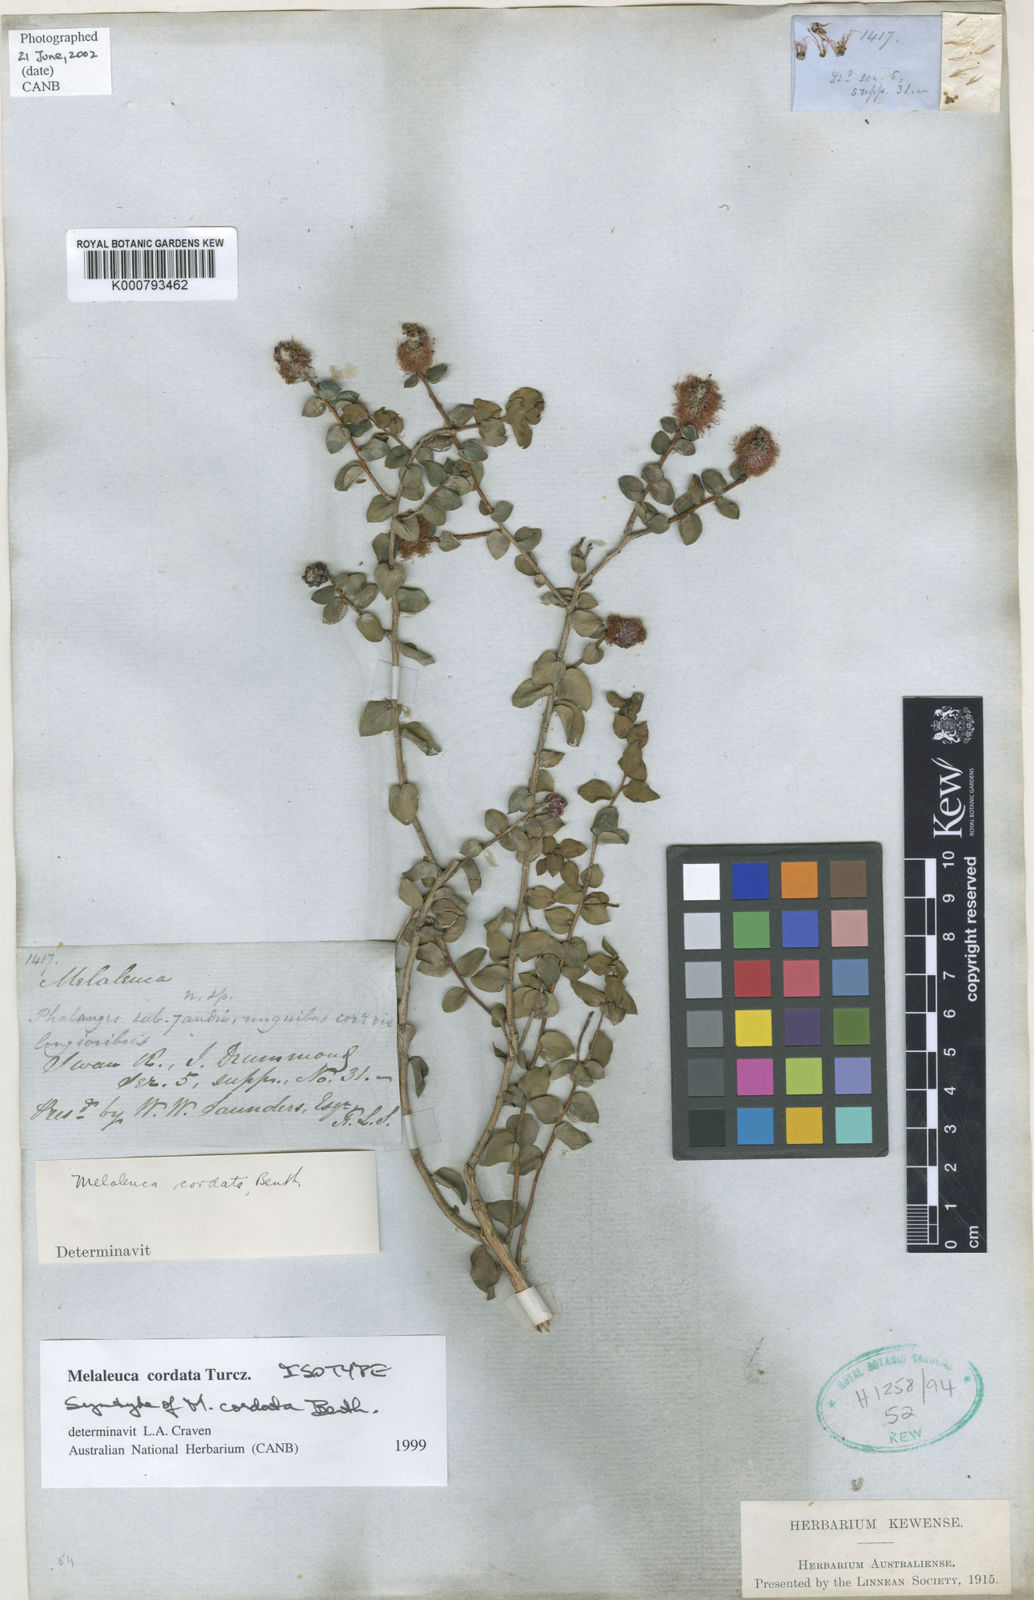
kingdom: Plantae
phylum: Tracheophyta
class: Magnoliopsida
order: Myrtales
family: Myrtaceae
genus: Melaleuca
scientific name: Melaleuca cordata
